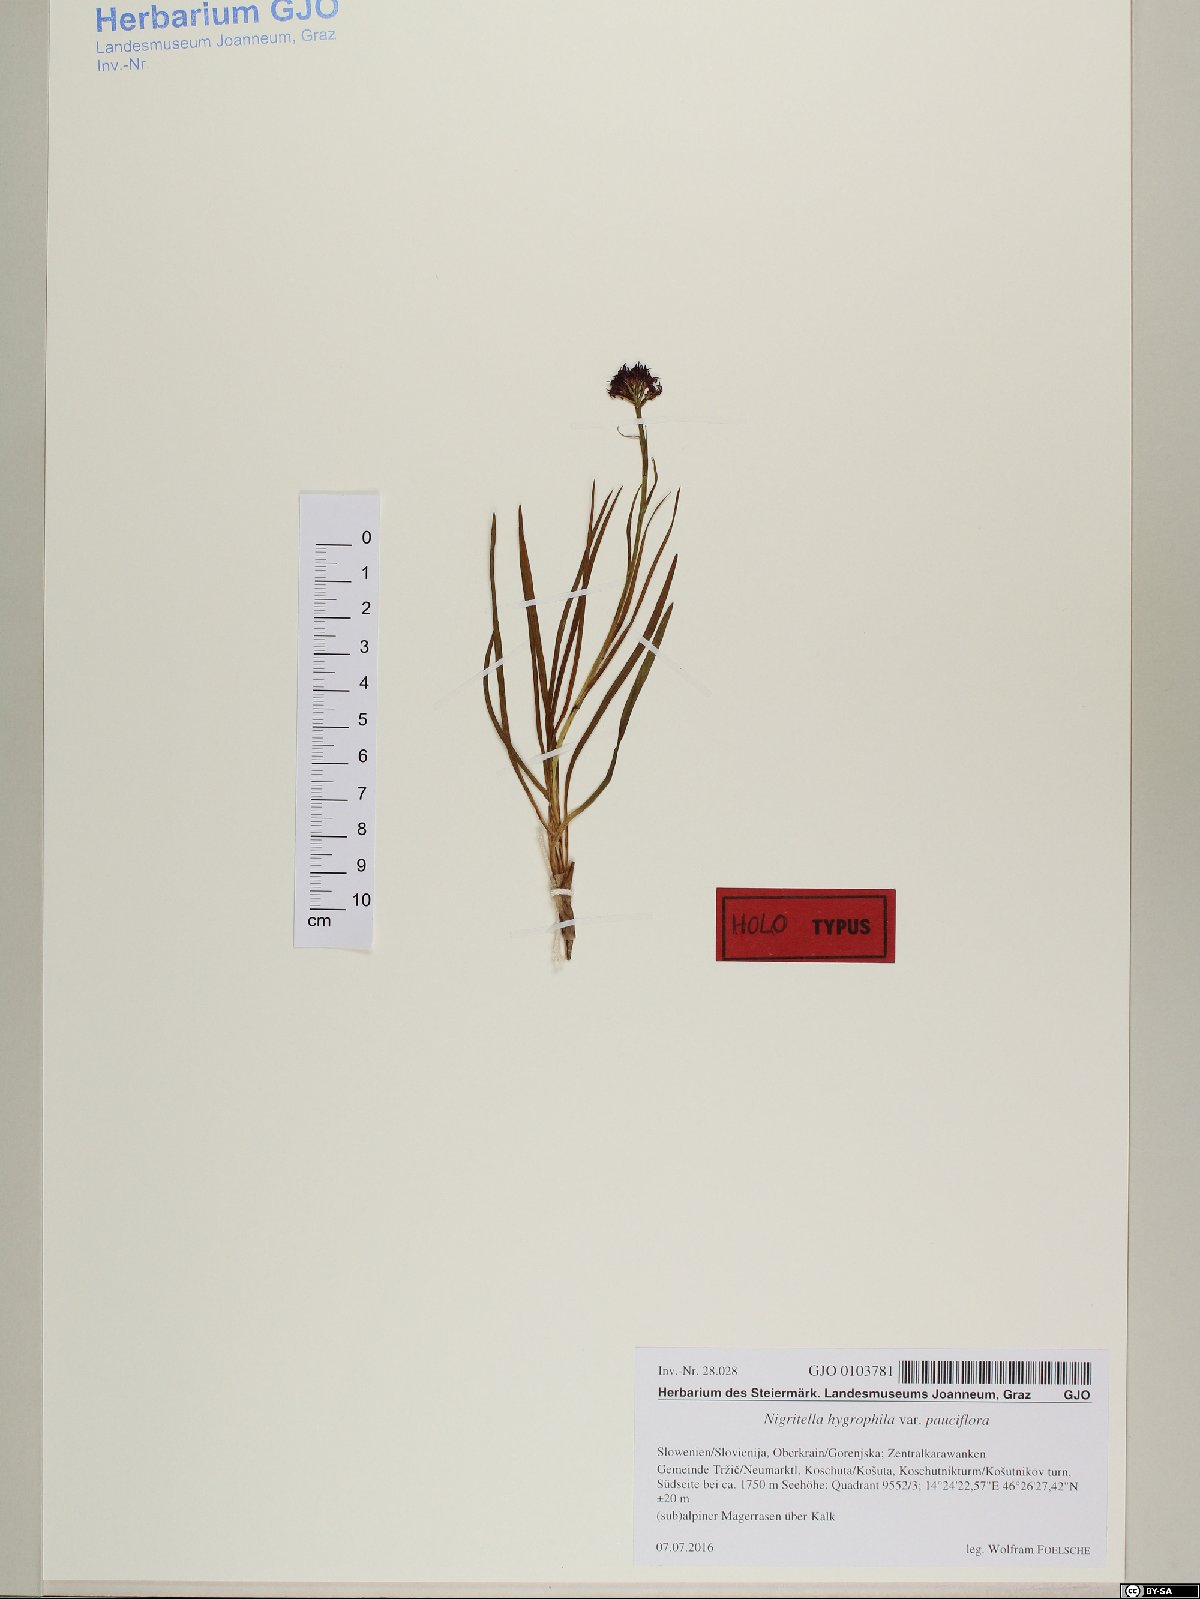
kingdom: Plantae
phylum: Tracheophyta
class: Liliopsida
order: Asparagales
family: Orchidaceae
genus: Gymnadenia
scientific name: Gymnadenia hygrophila
